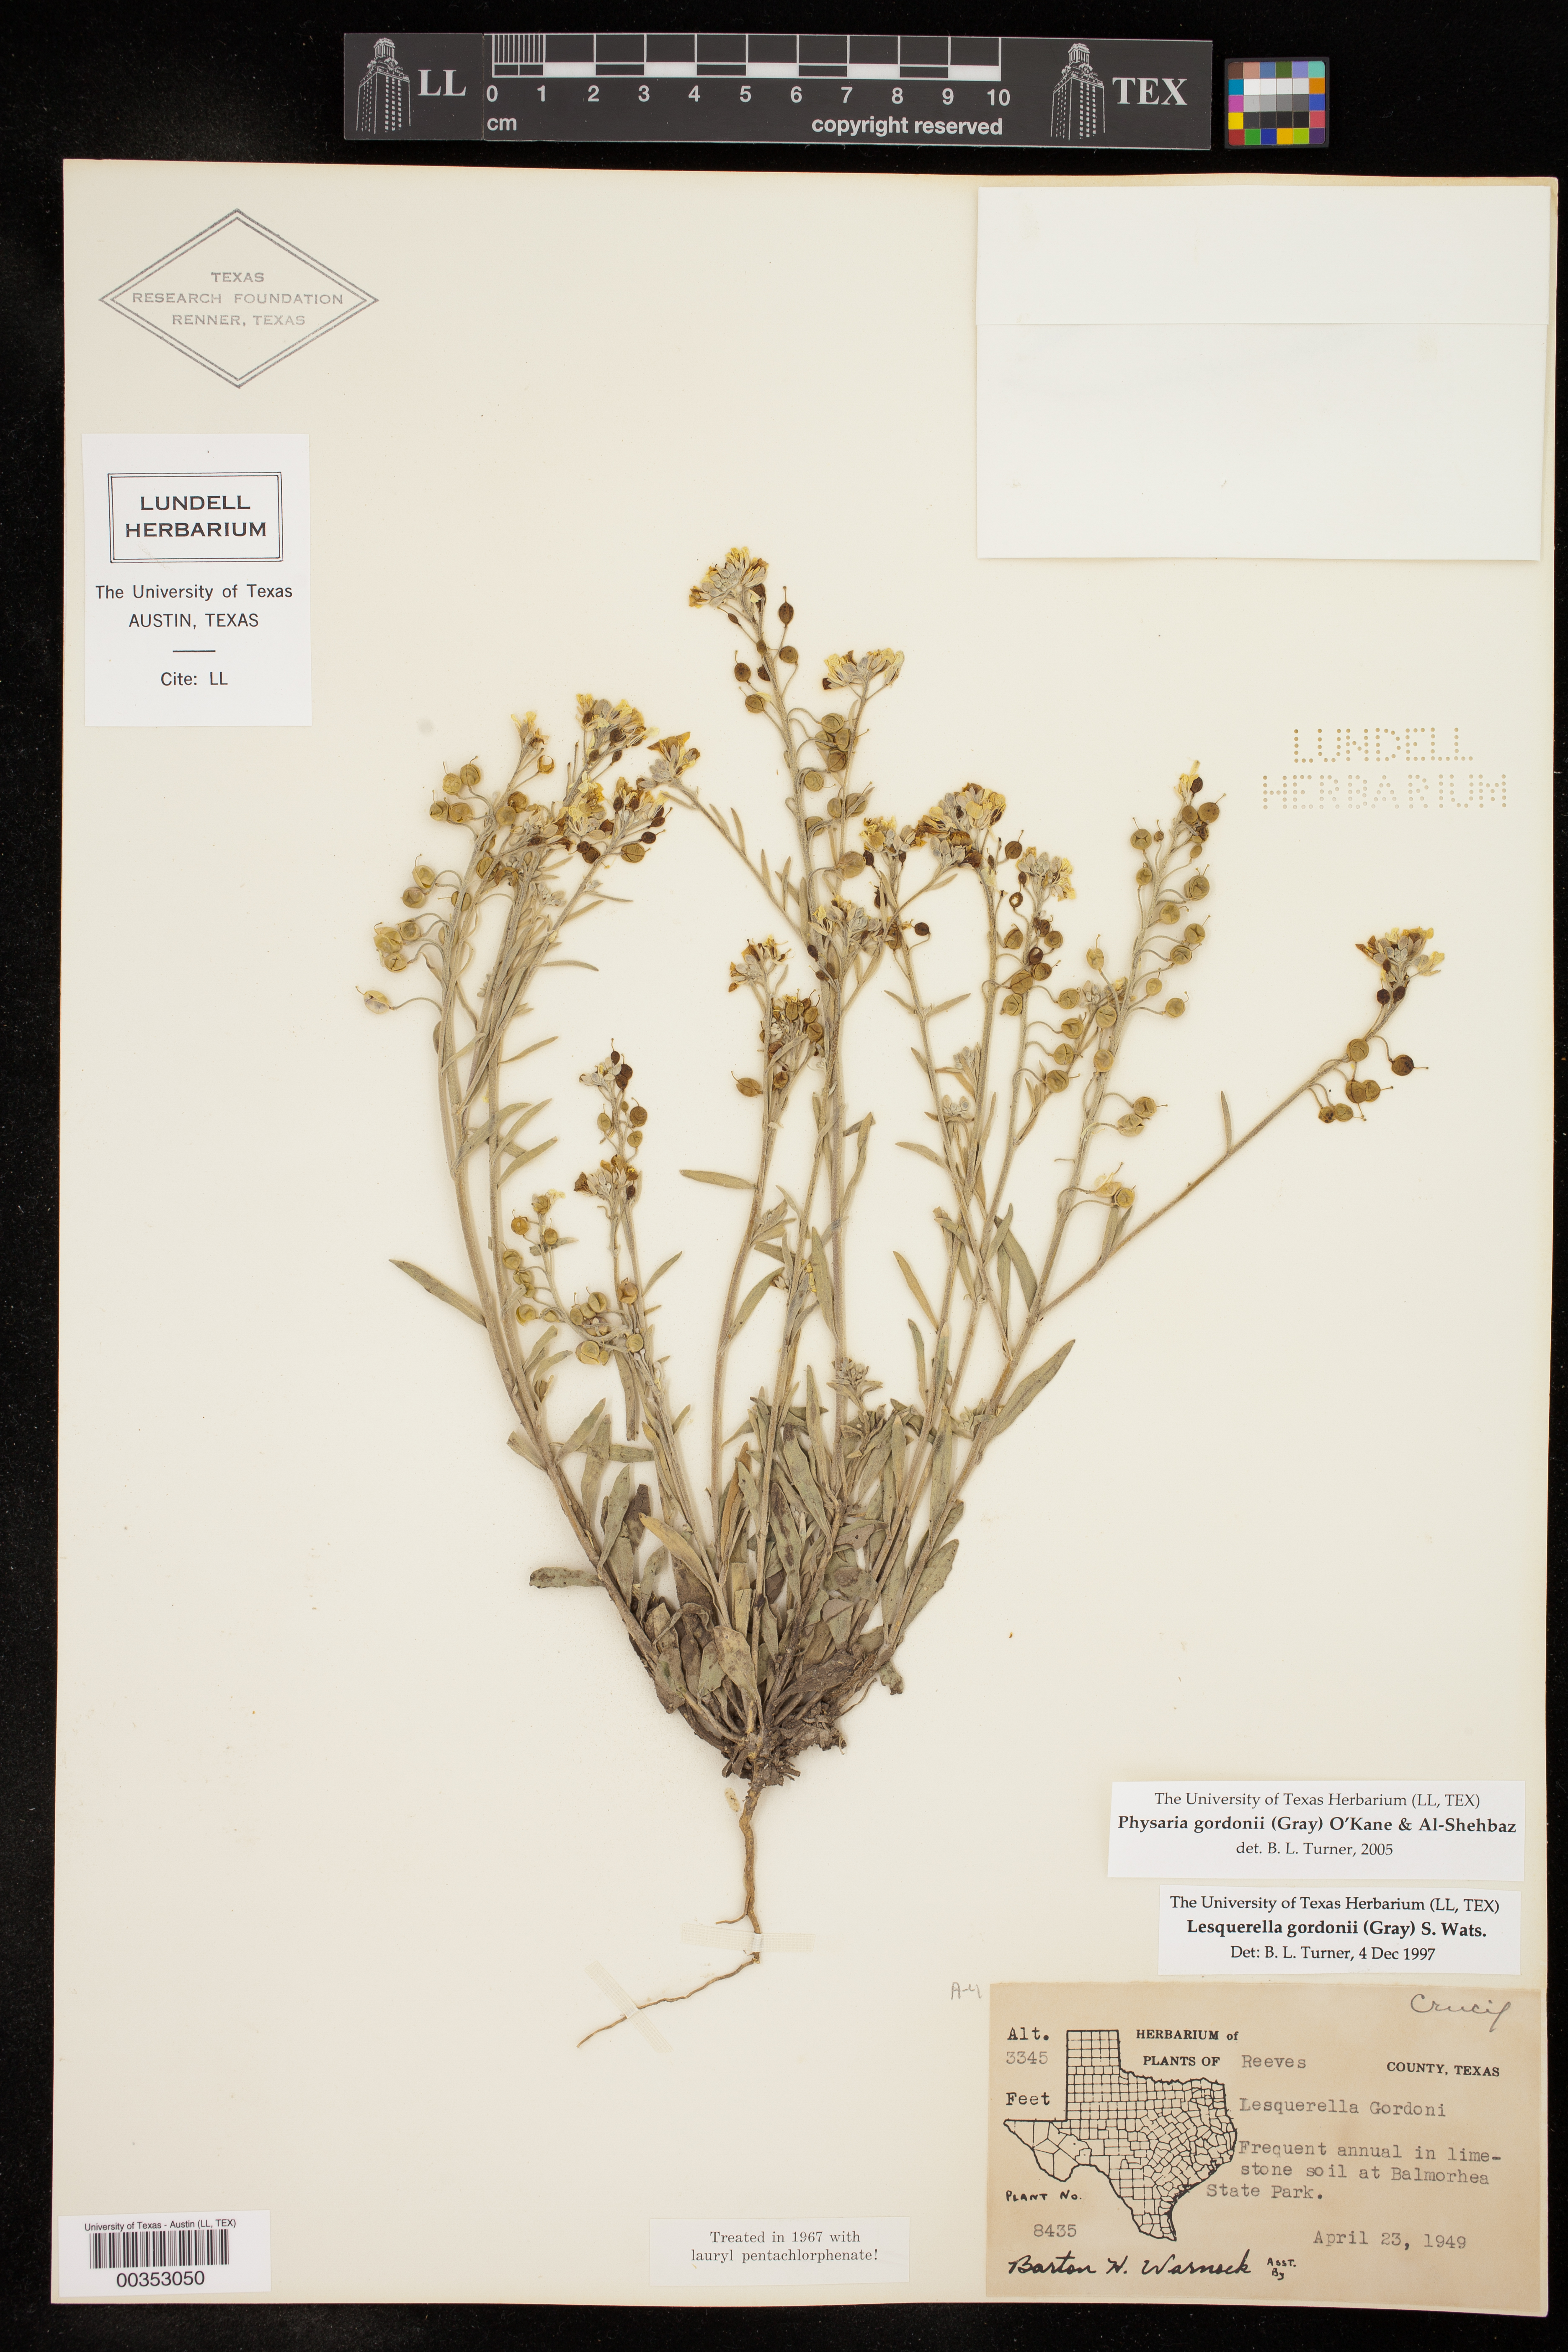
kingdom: Plantae
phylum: Tracheophyta
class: Magnoliopsida
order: Brassicales
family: Brassicaceae
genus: Physaria
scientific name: Physaria gordonii
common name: Gordon's bladderpod
